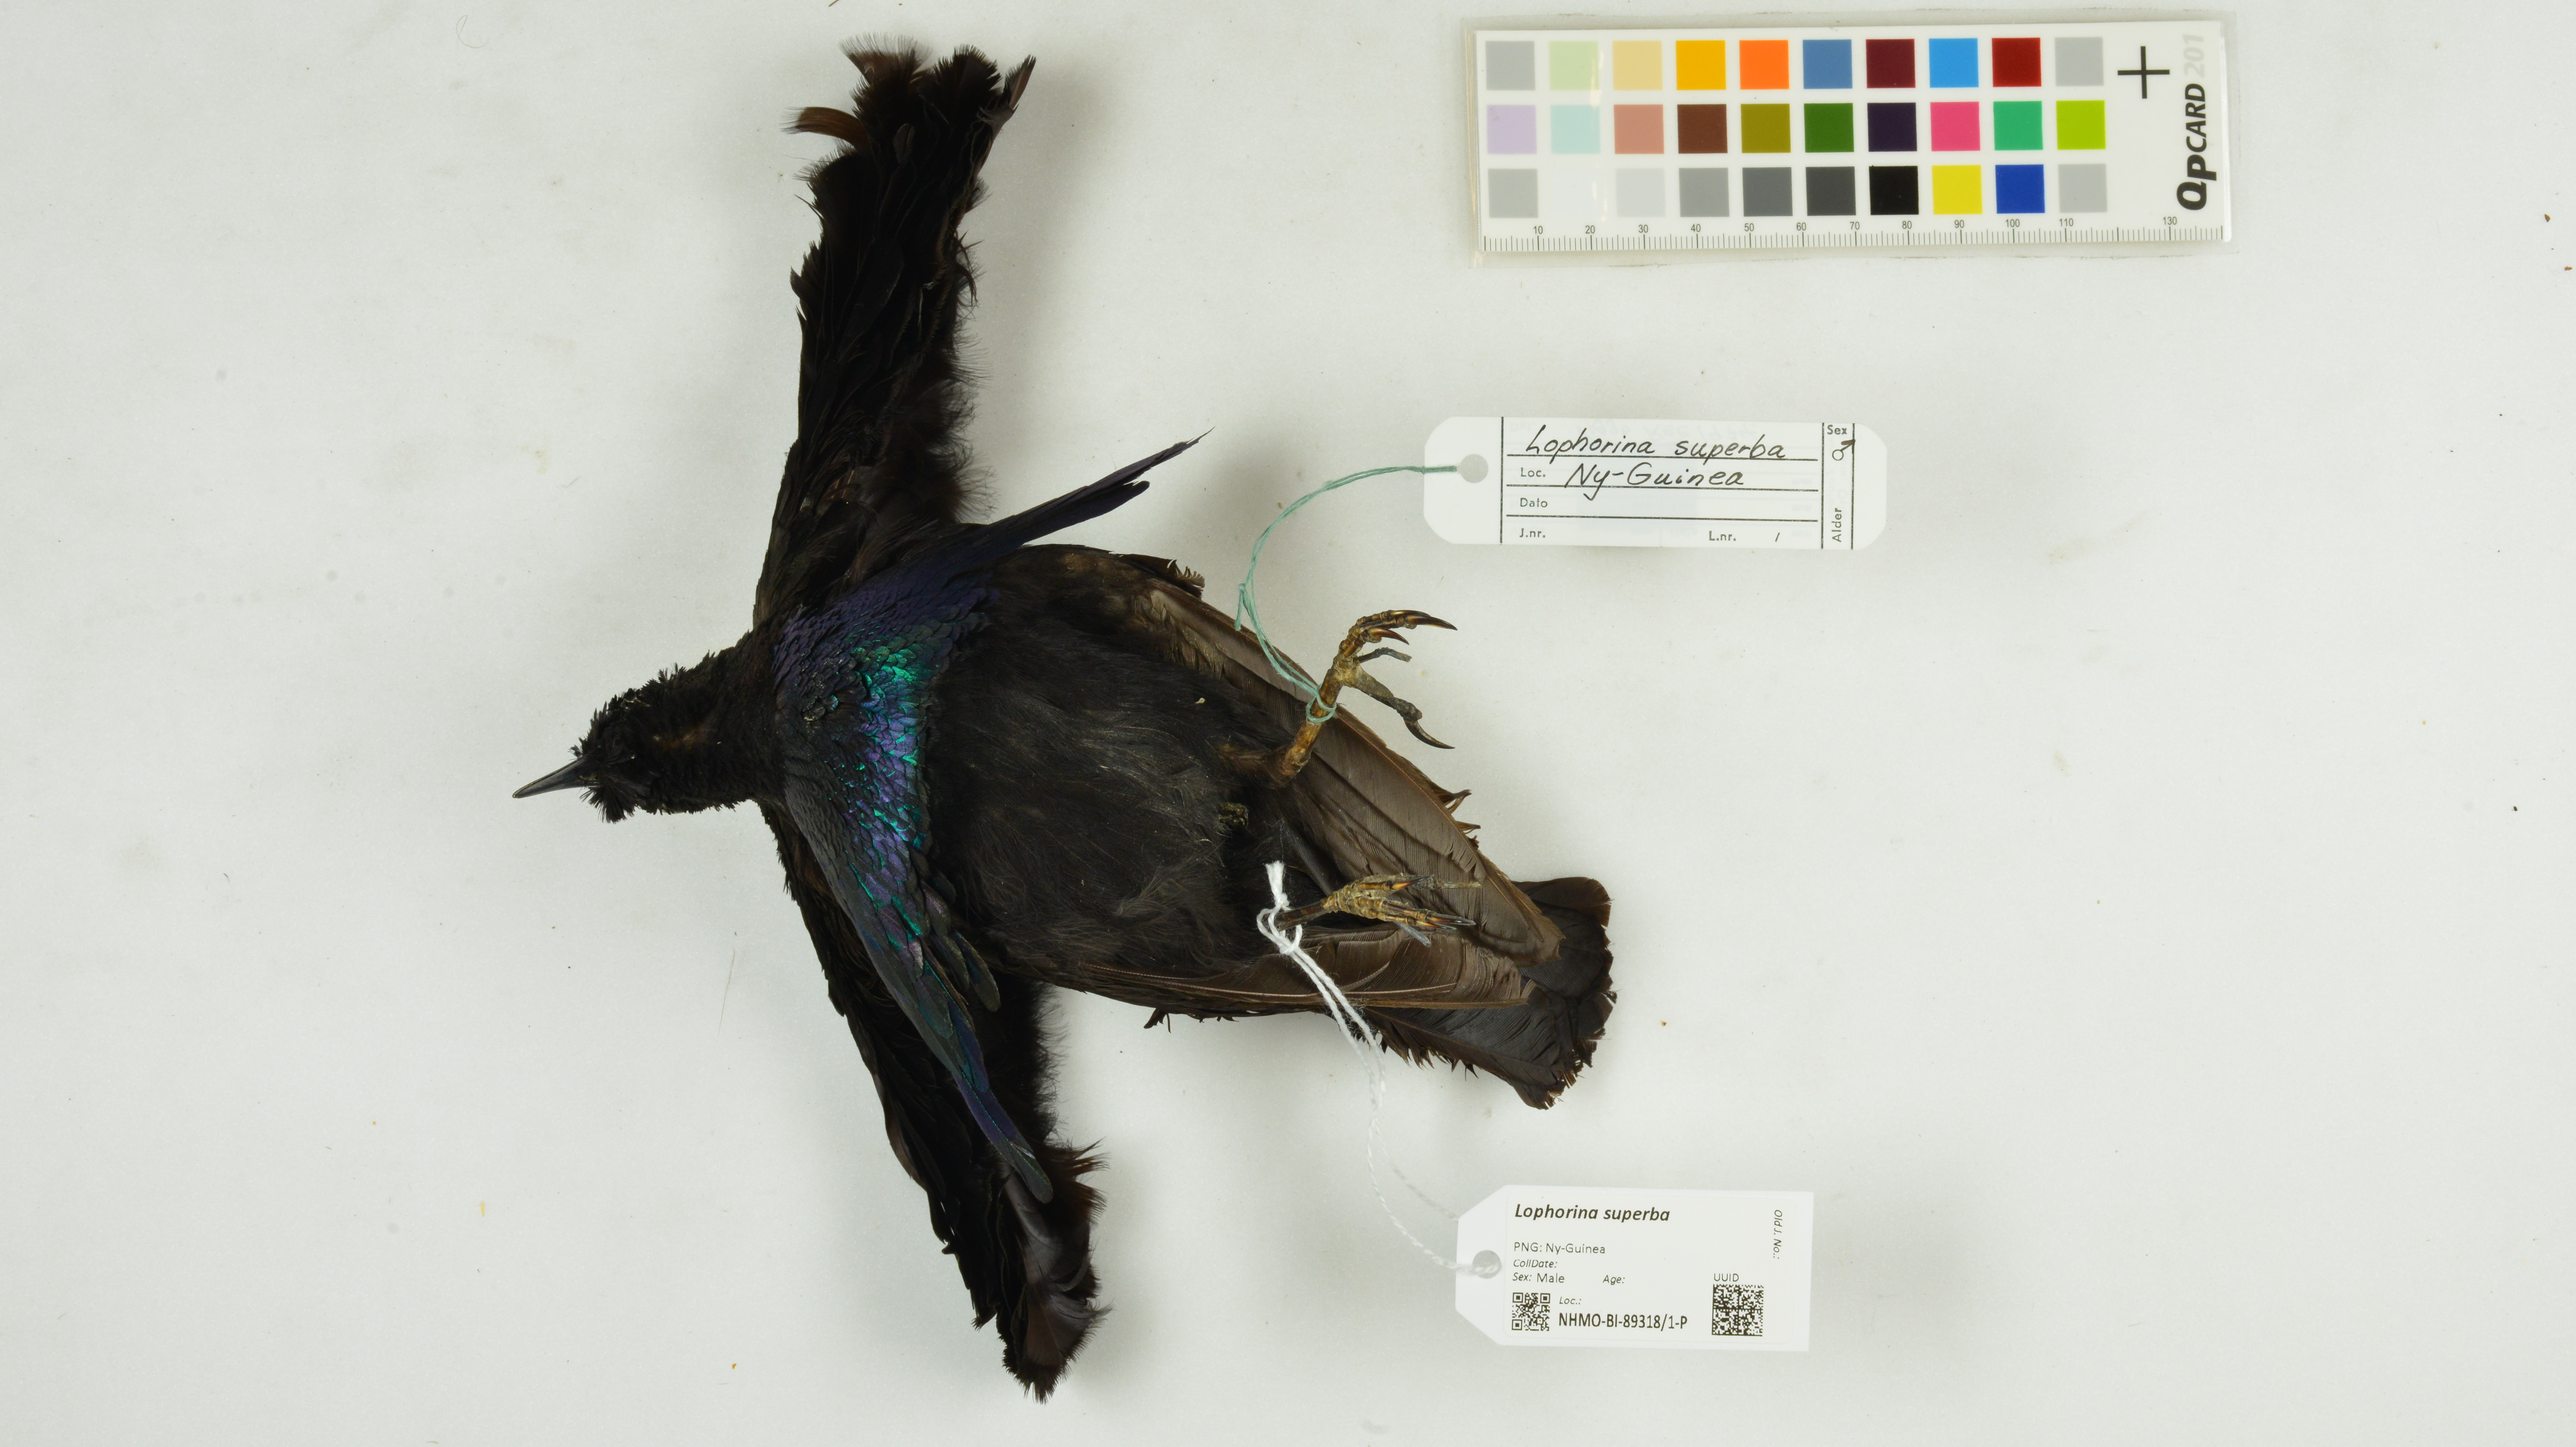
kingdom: Animalia
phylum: Chordata
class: Aves
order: Passeriformes
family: Paradisaeidae
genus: Lophorina
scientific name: Lophorina superba
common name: Superb bird-of-paradise
